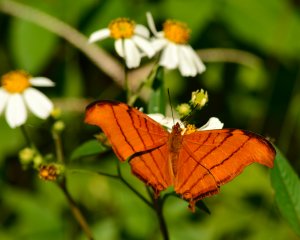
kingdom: Animalia
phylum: Arthropoda
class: Insecta
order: Lepidoptera
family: Nymphalidae
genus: Marpesia
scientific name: Marpesia petreus
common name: Ruddy Daggerwing
